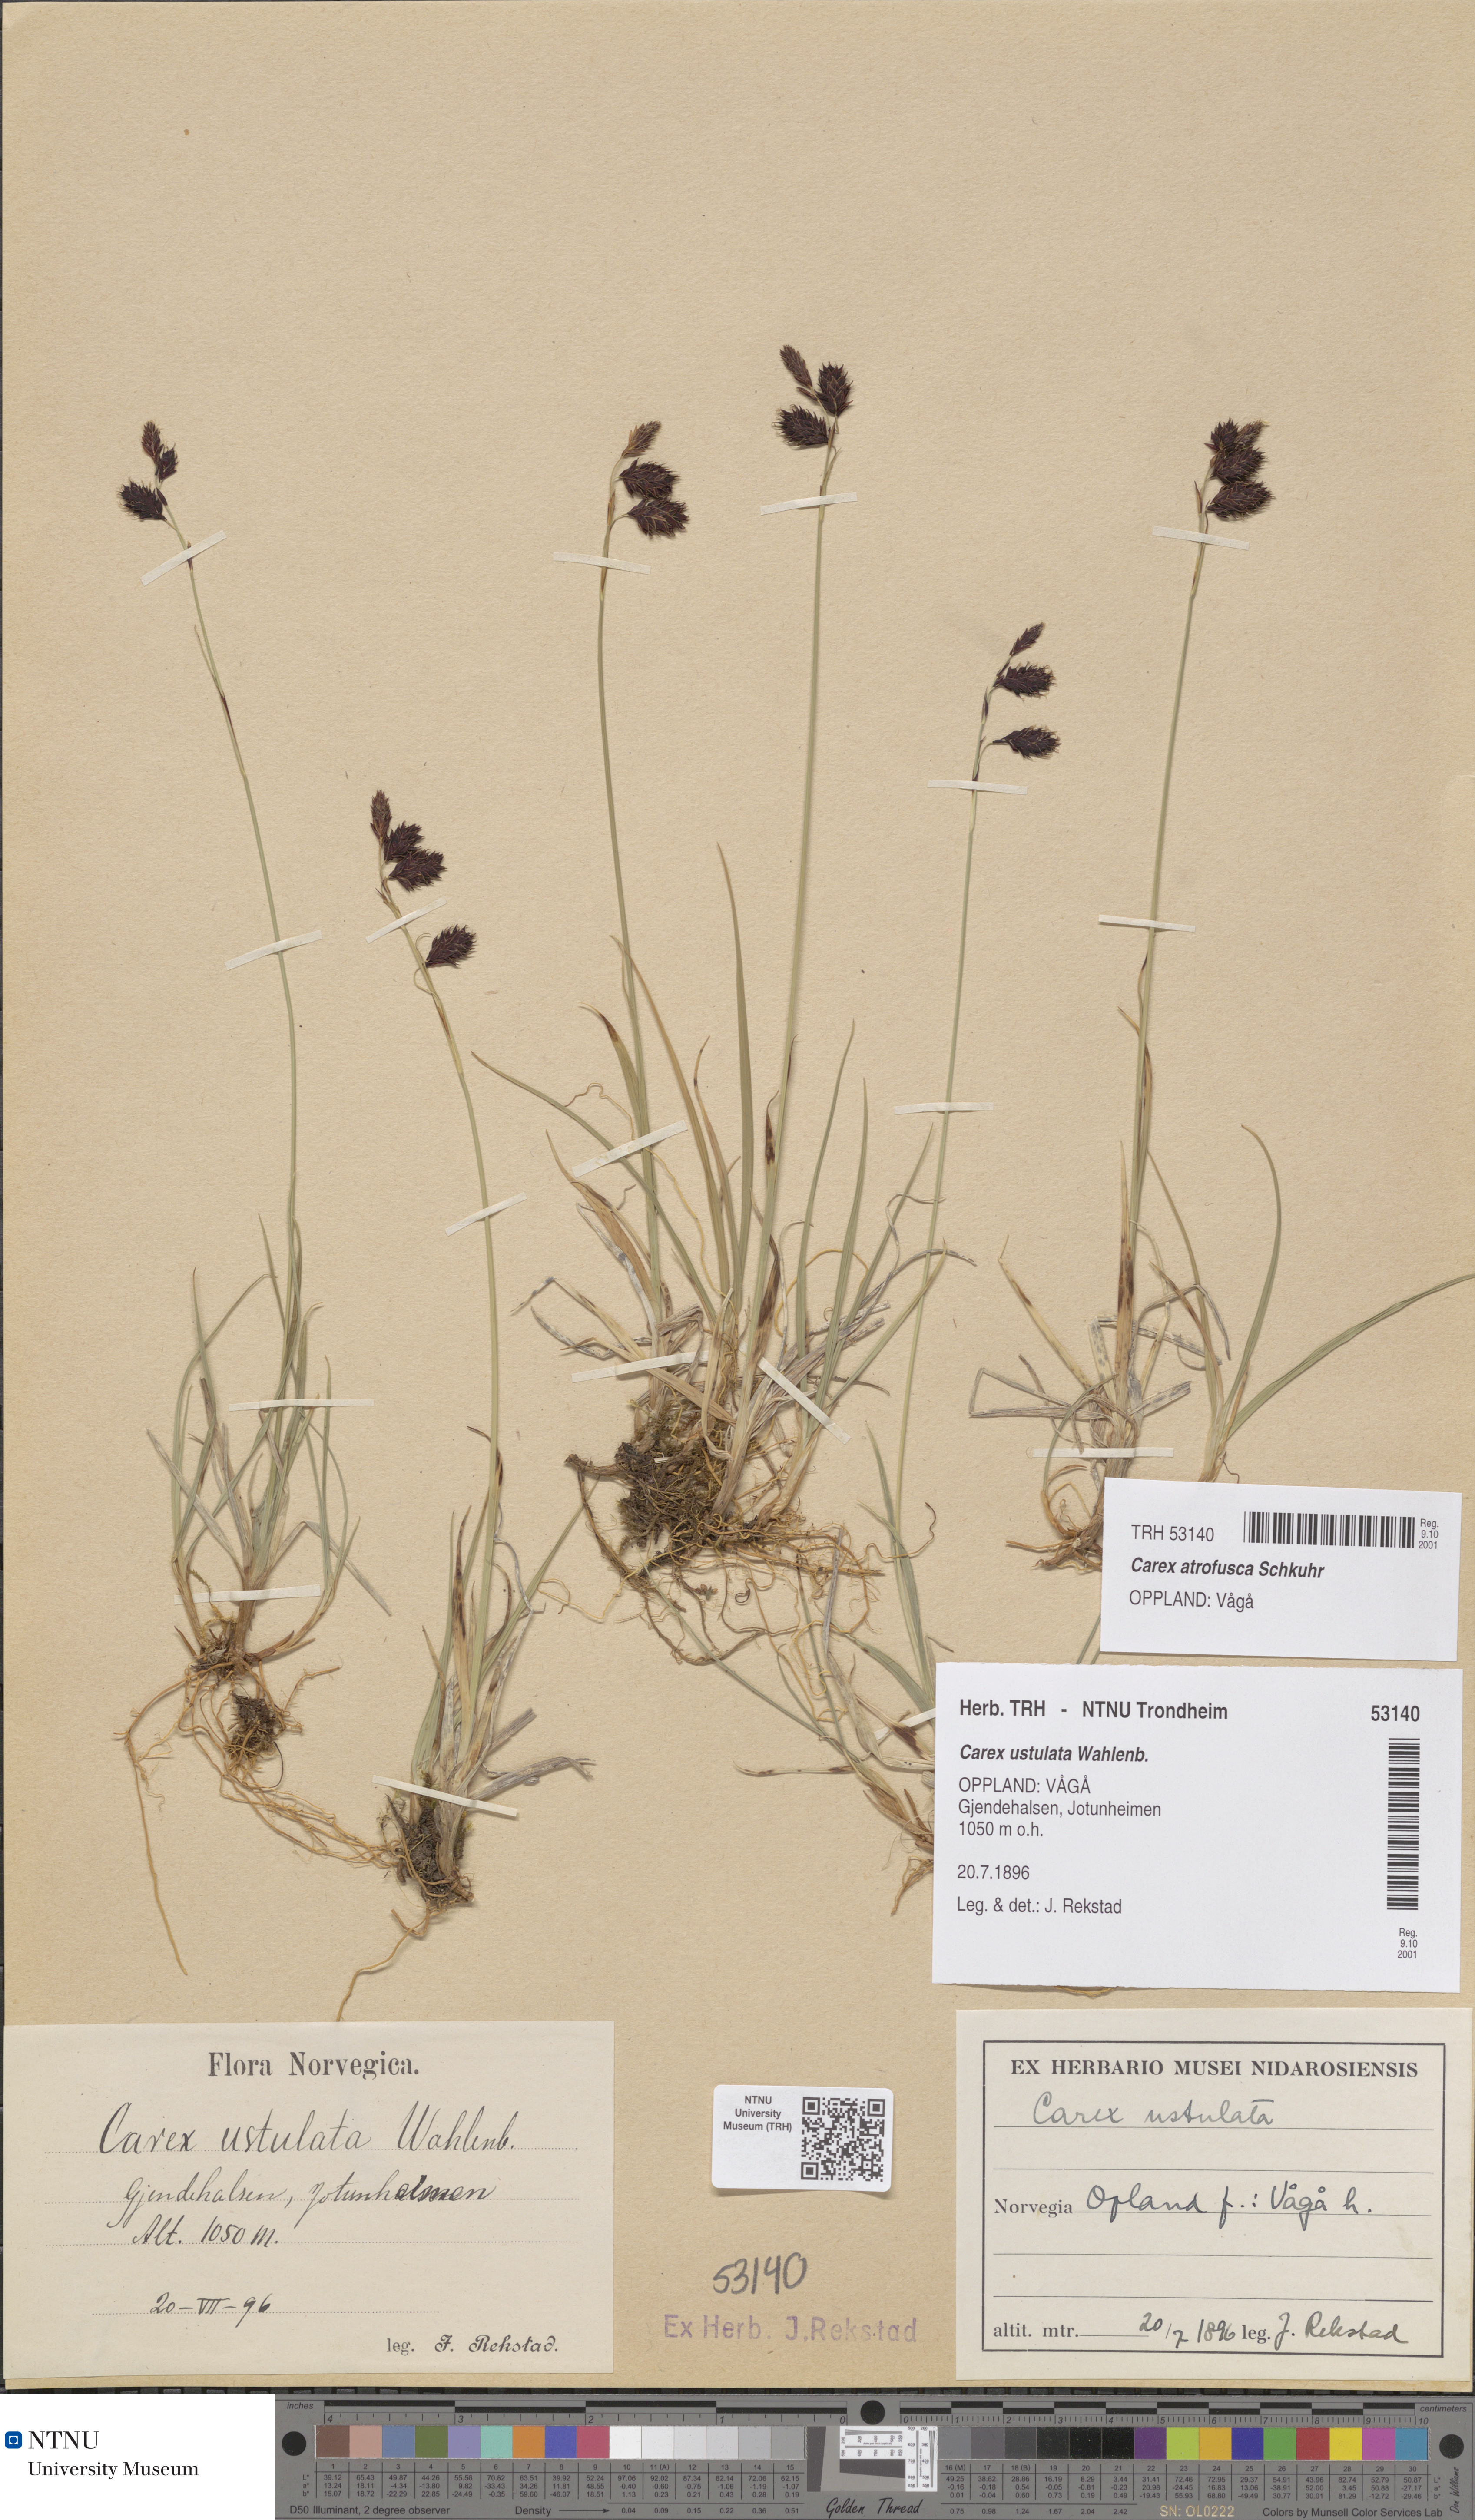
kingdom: Plantae
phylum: Tracheophyta
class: Liliopsida
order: Poales
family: Cyperaceae
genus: Carex
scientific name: Carex atrofusca
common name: Scorched alpine-sedge
